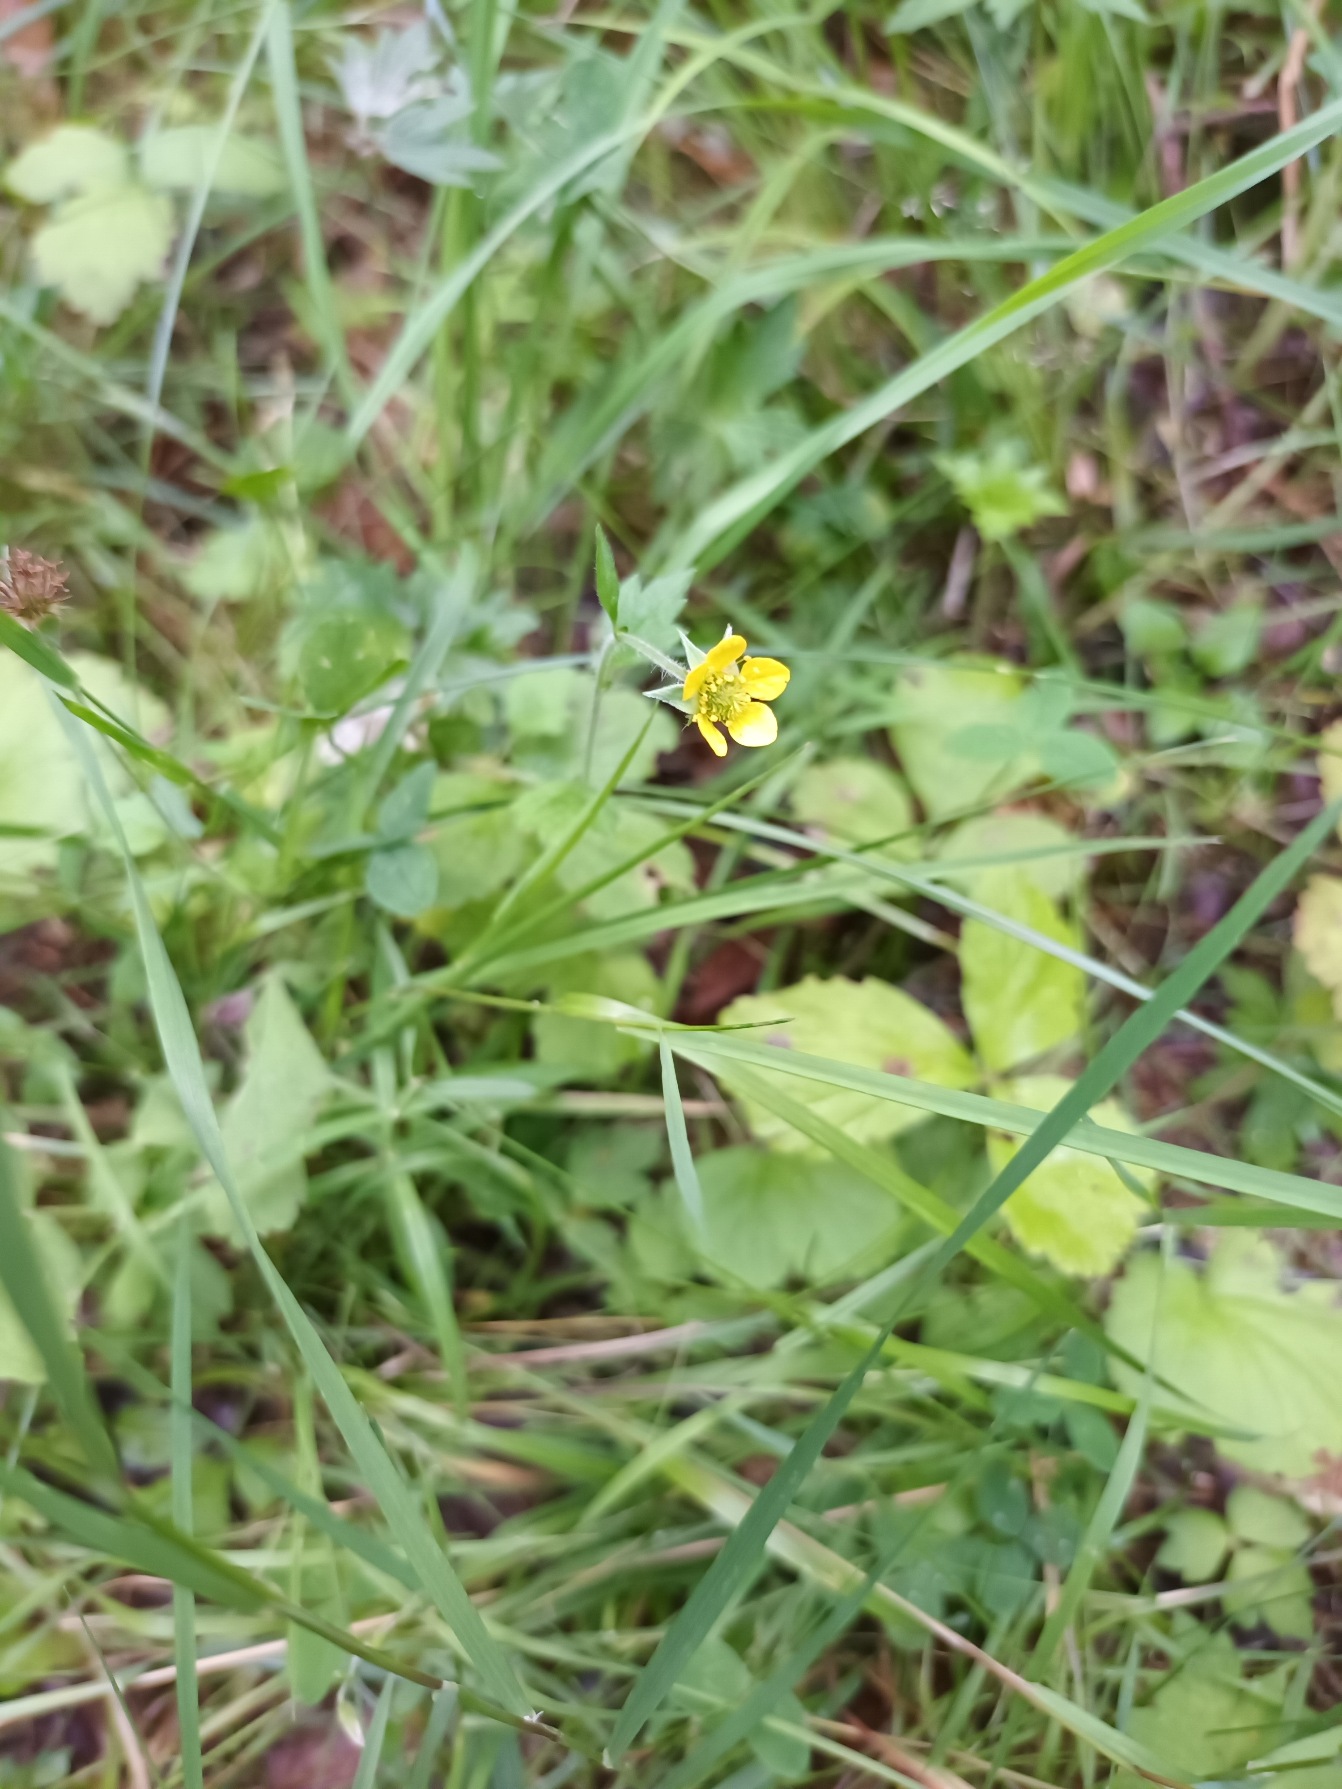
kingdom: Plantae
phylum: Tracheophyta
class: Magnoliopsida
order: Rosales
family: Rosaceae
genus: Geum
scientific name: Geum urbanum
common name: Feber-nellikerod
